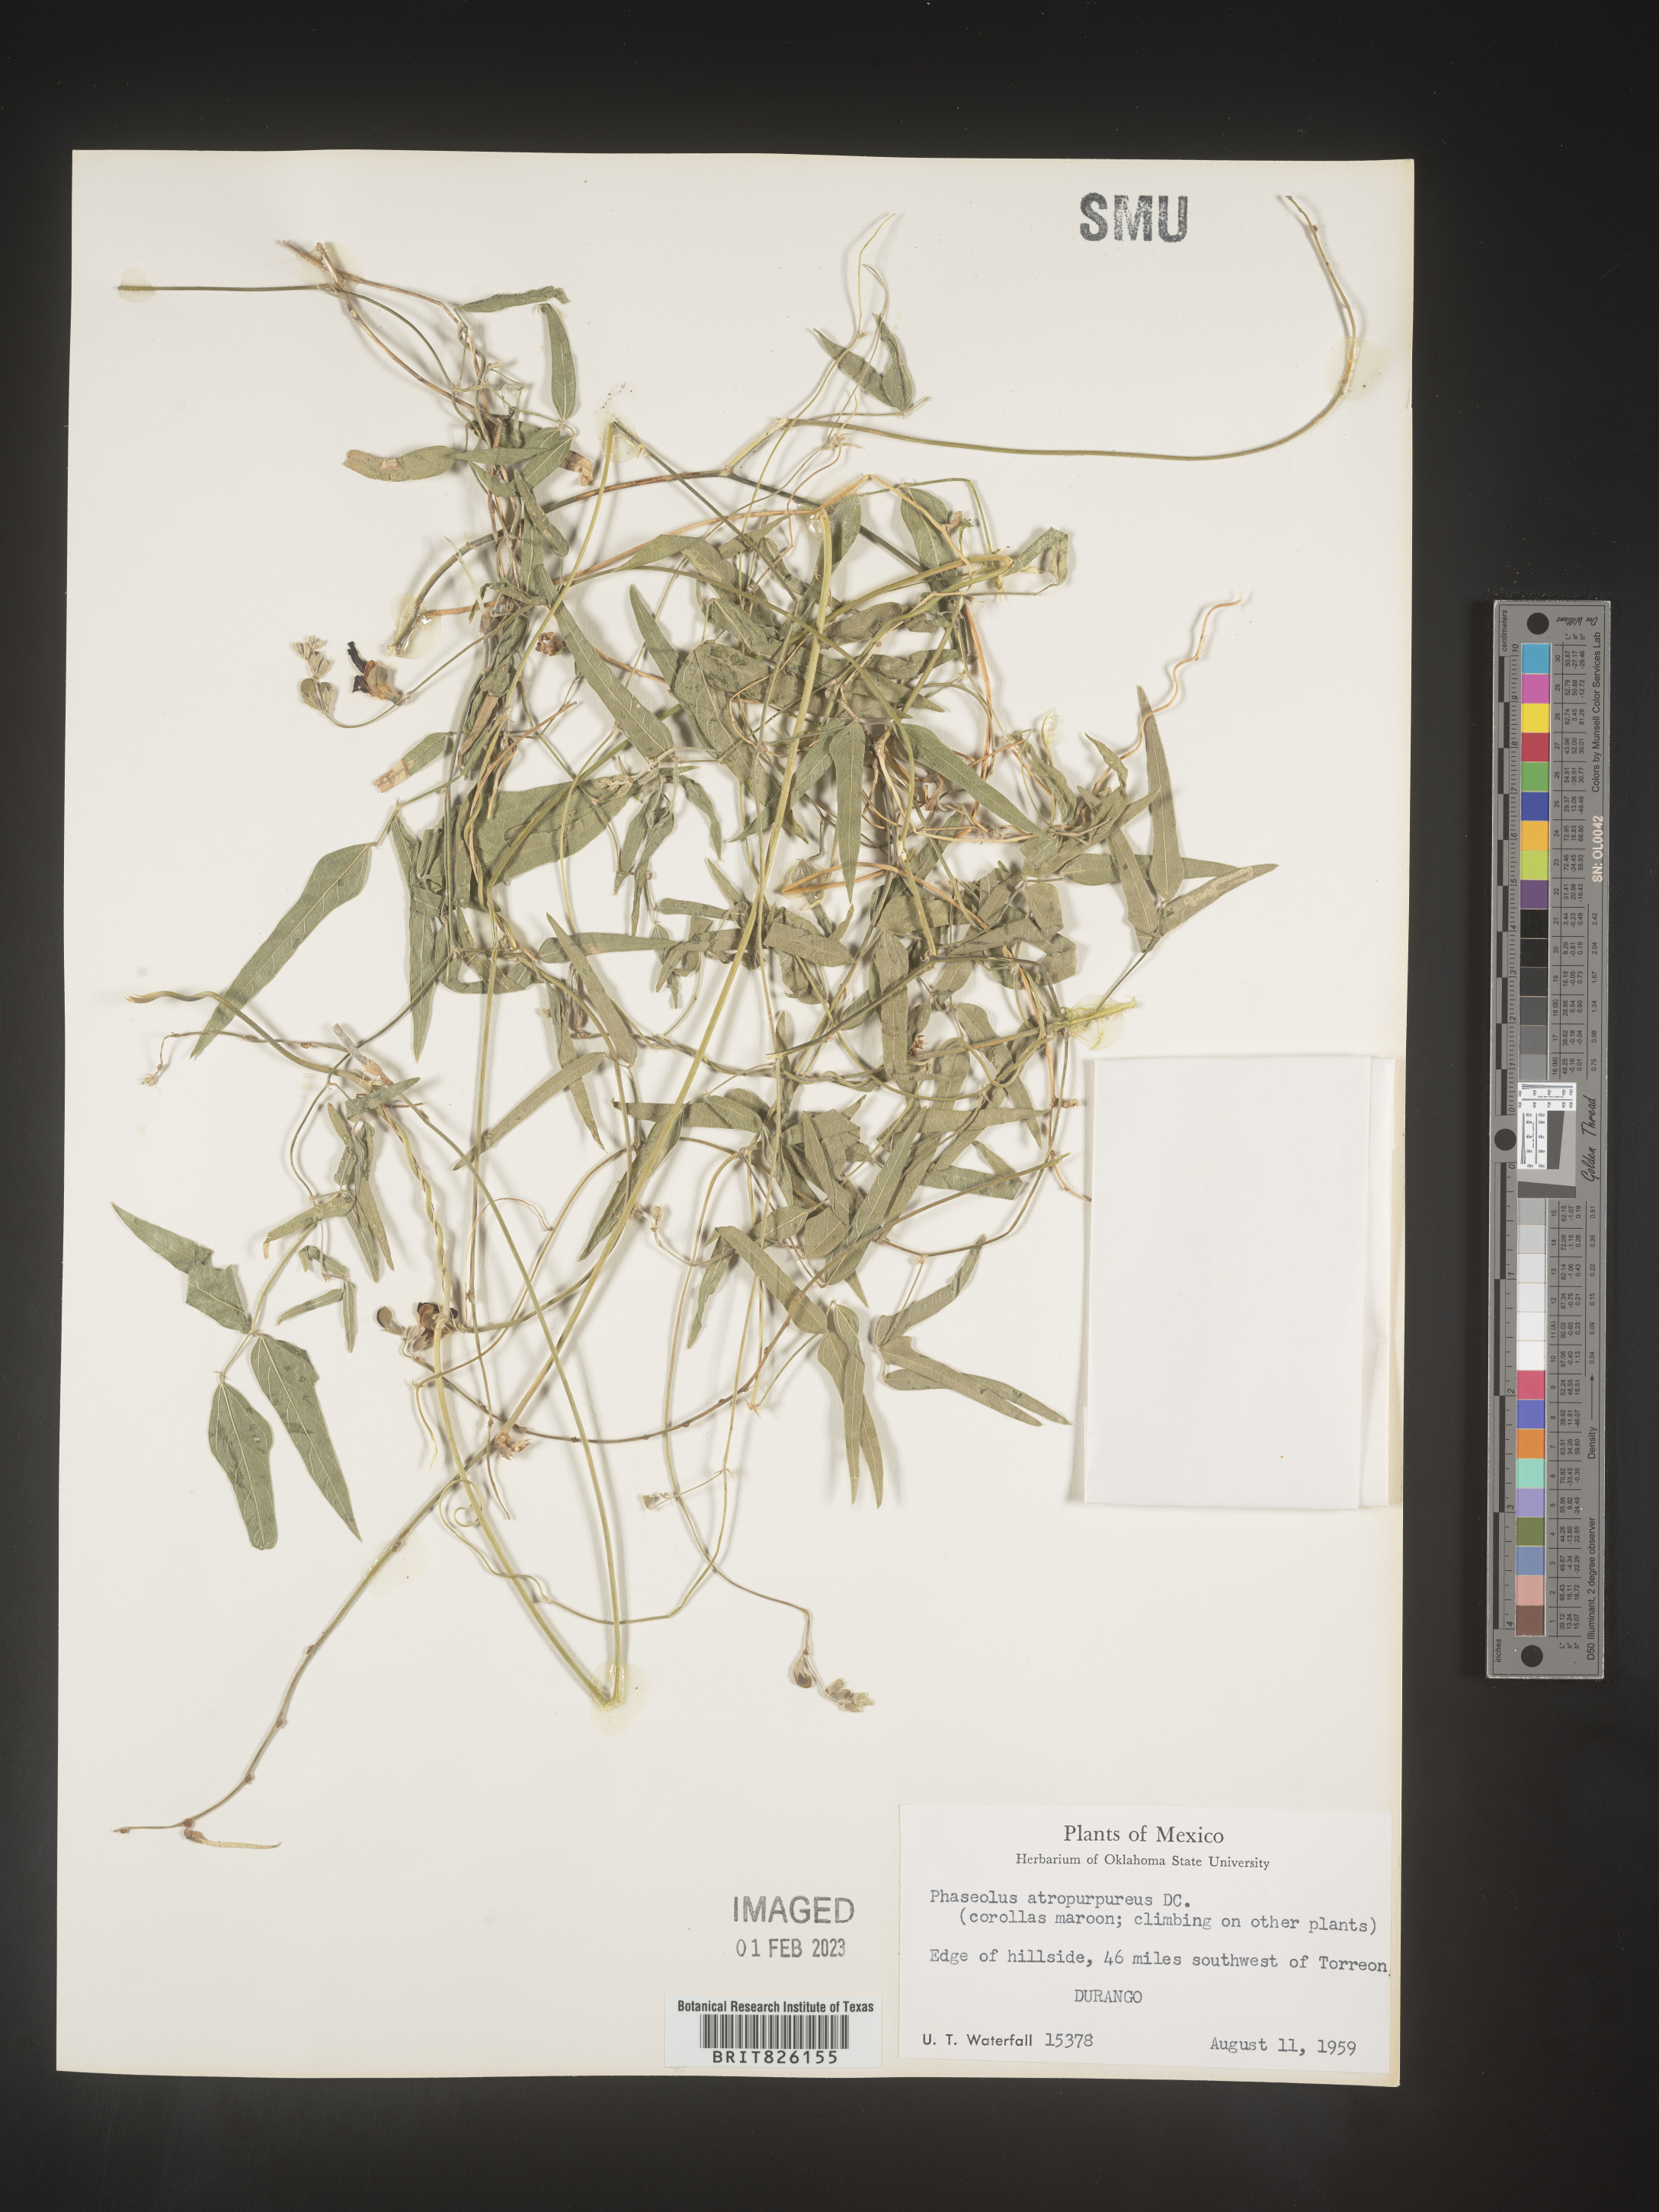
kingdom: Plantae
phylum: Tracheophyta
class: Magnoliopsida
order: Fabales
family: Fabaceae
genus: Macroptilium
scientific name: Macroptilium
